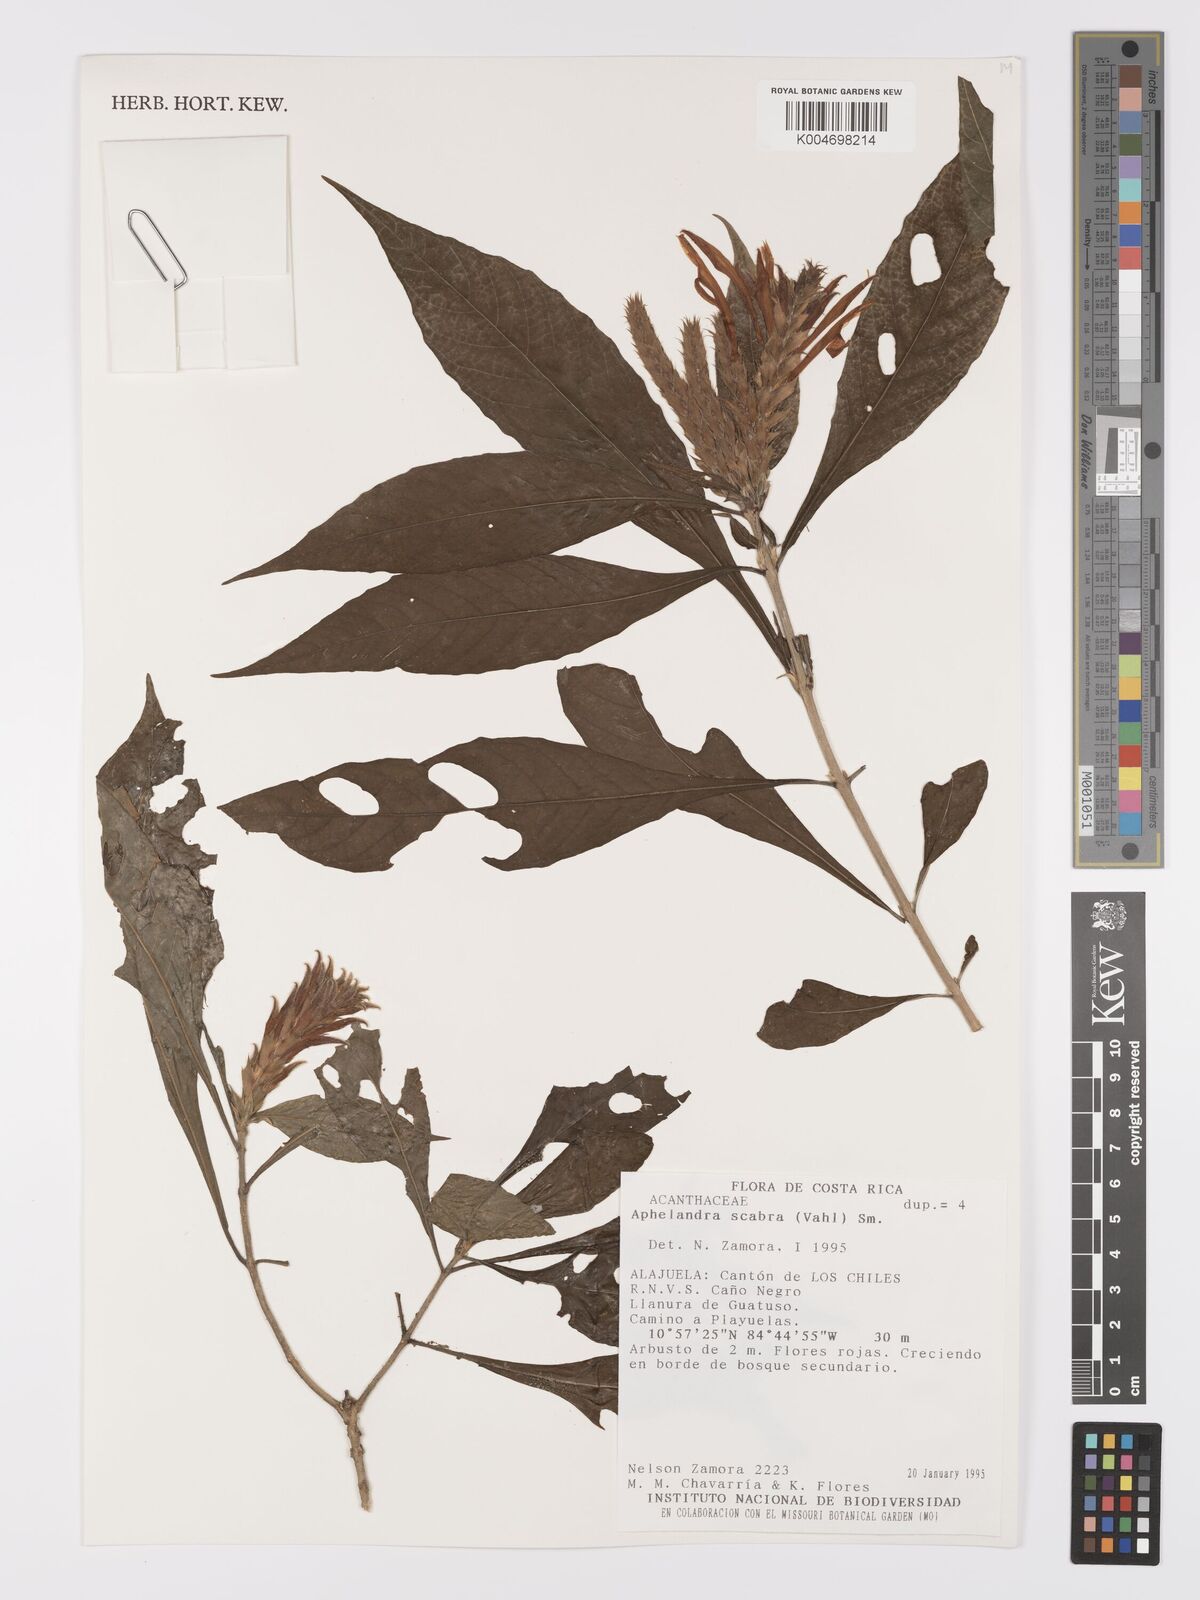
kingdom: Plantae
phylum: Tracheophyta
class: Magnoliopsida
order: Lamiales
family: Acanthaceae
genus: Aphelandra
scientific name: Aphelandra scabra
